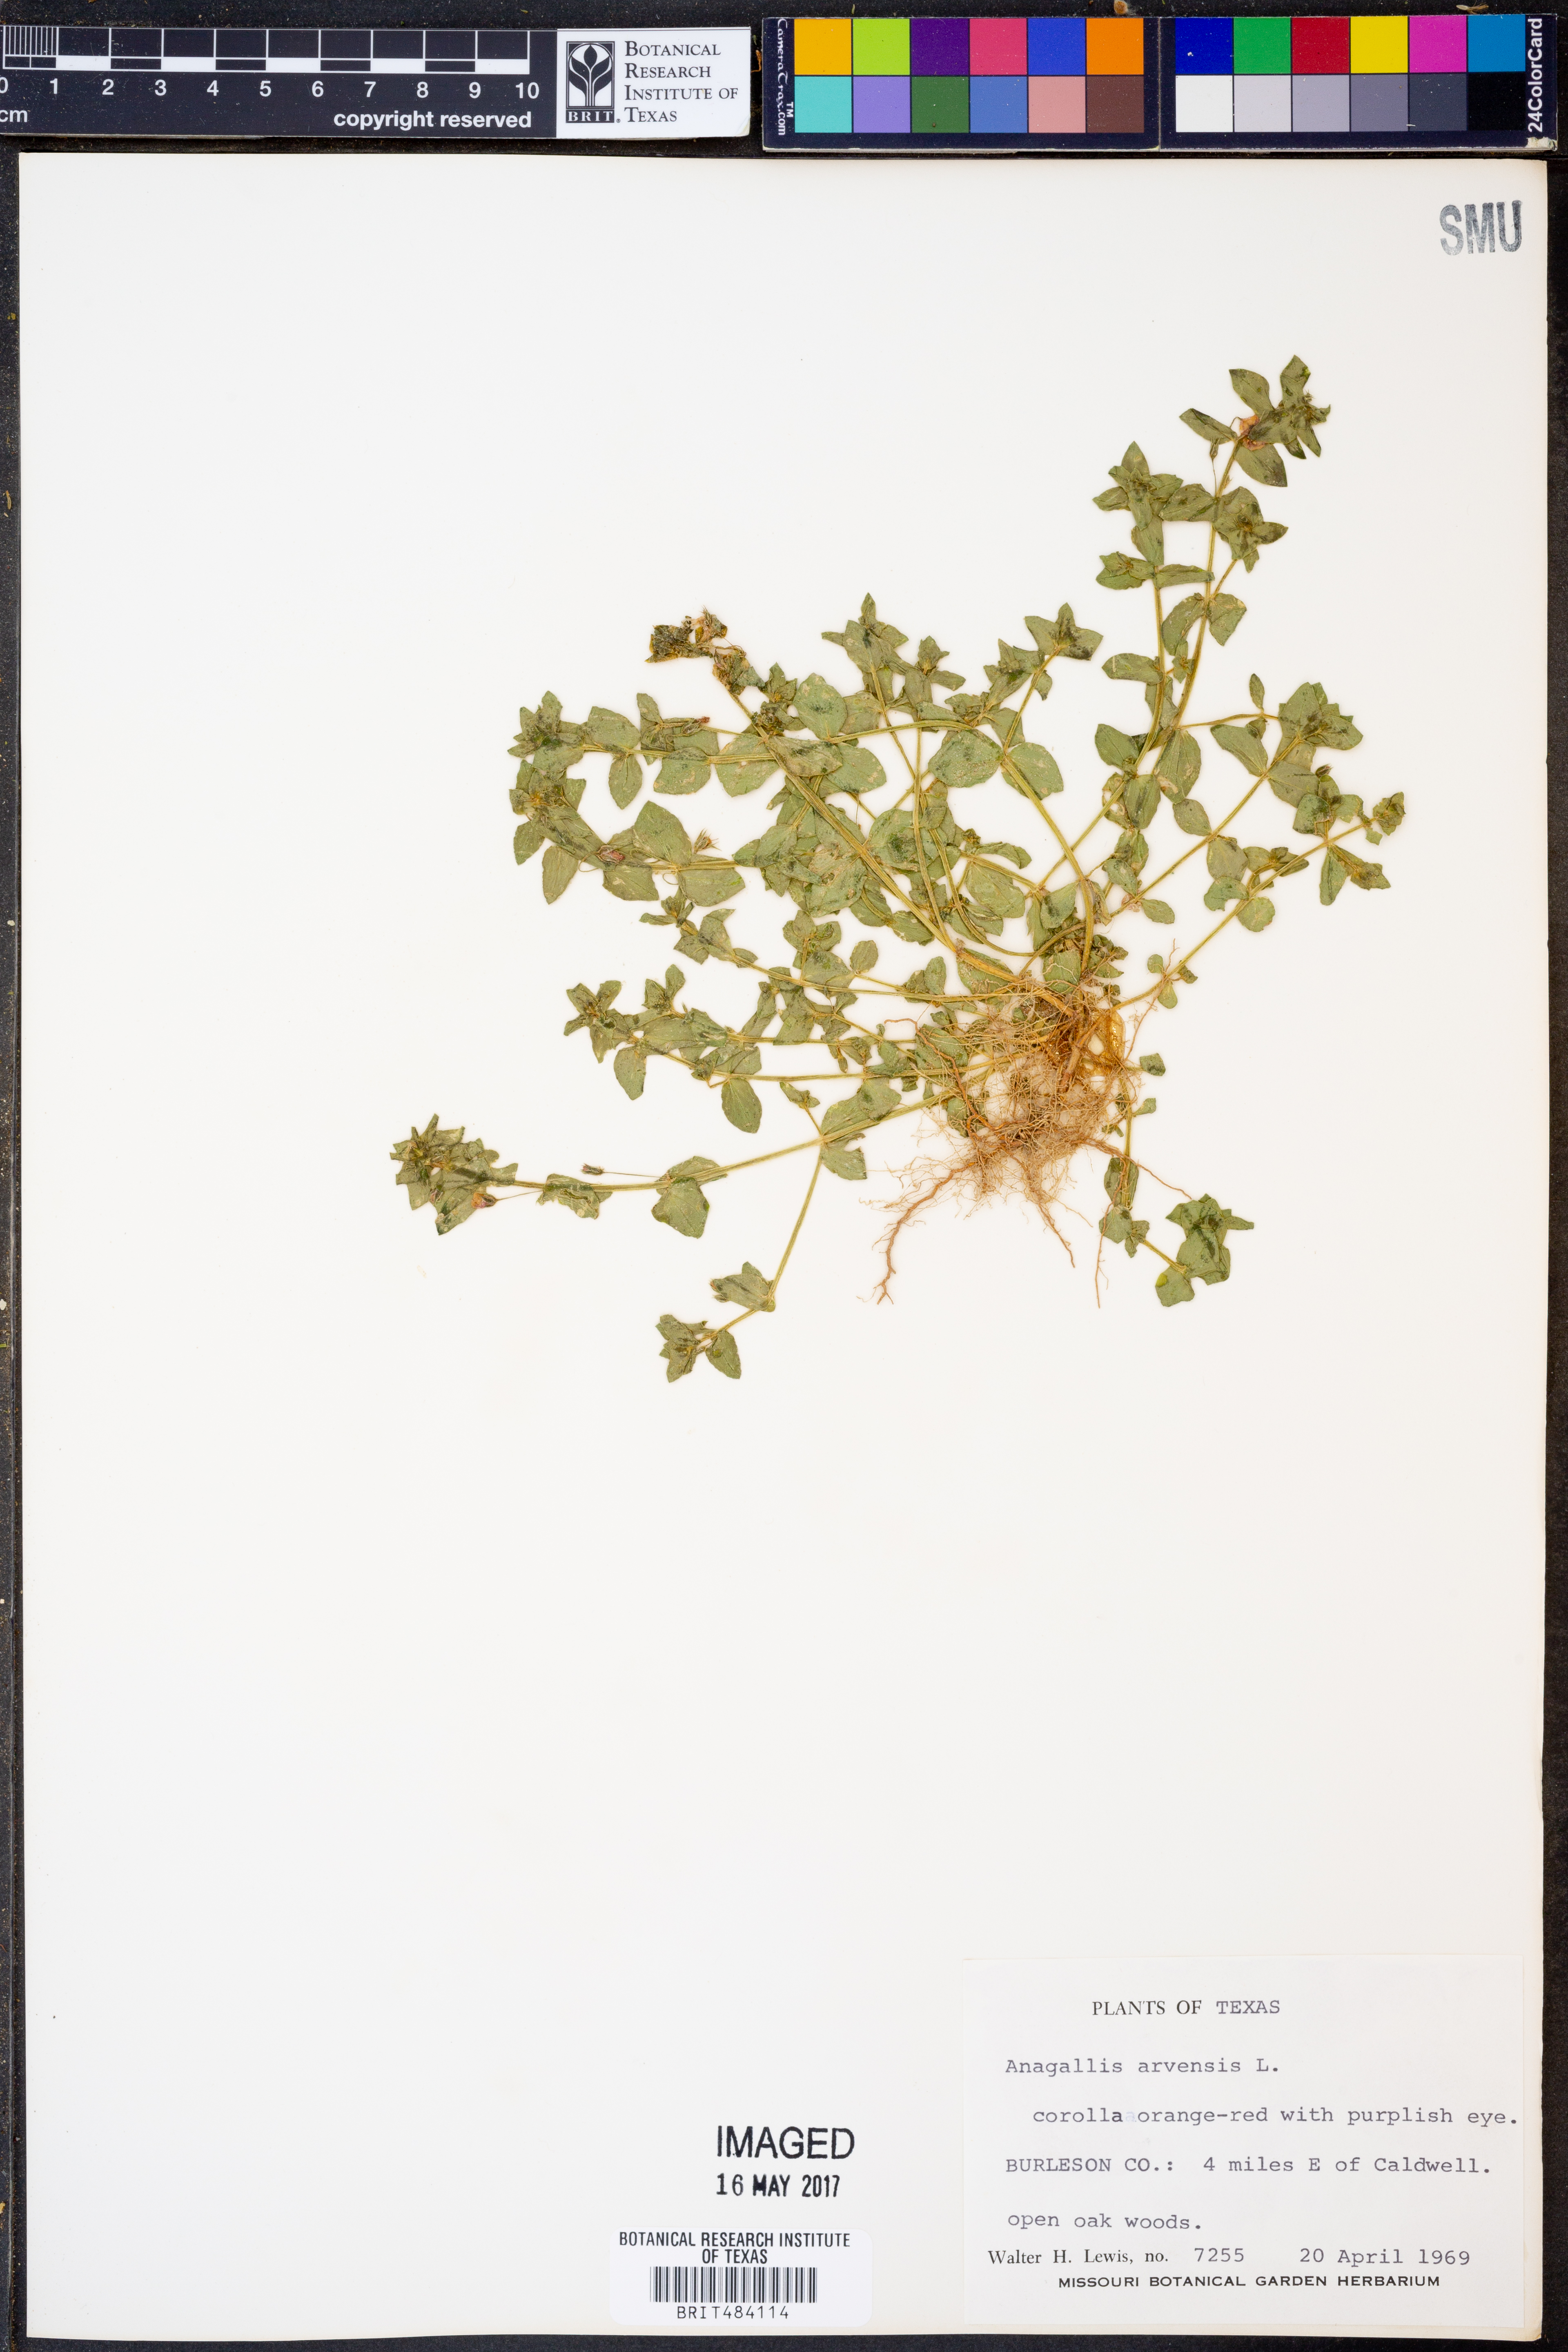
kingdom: Plantae
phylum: Tracheophyta
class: Magnoliopsida
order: Ericales
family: Primulaceae
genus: Lysimachia
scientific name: Lysimachia arvensis
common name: Scarlet pimpernel
